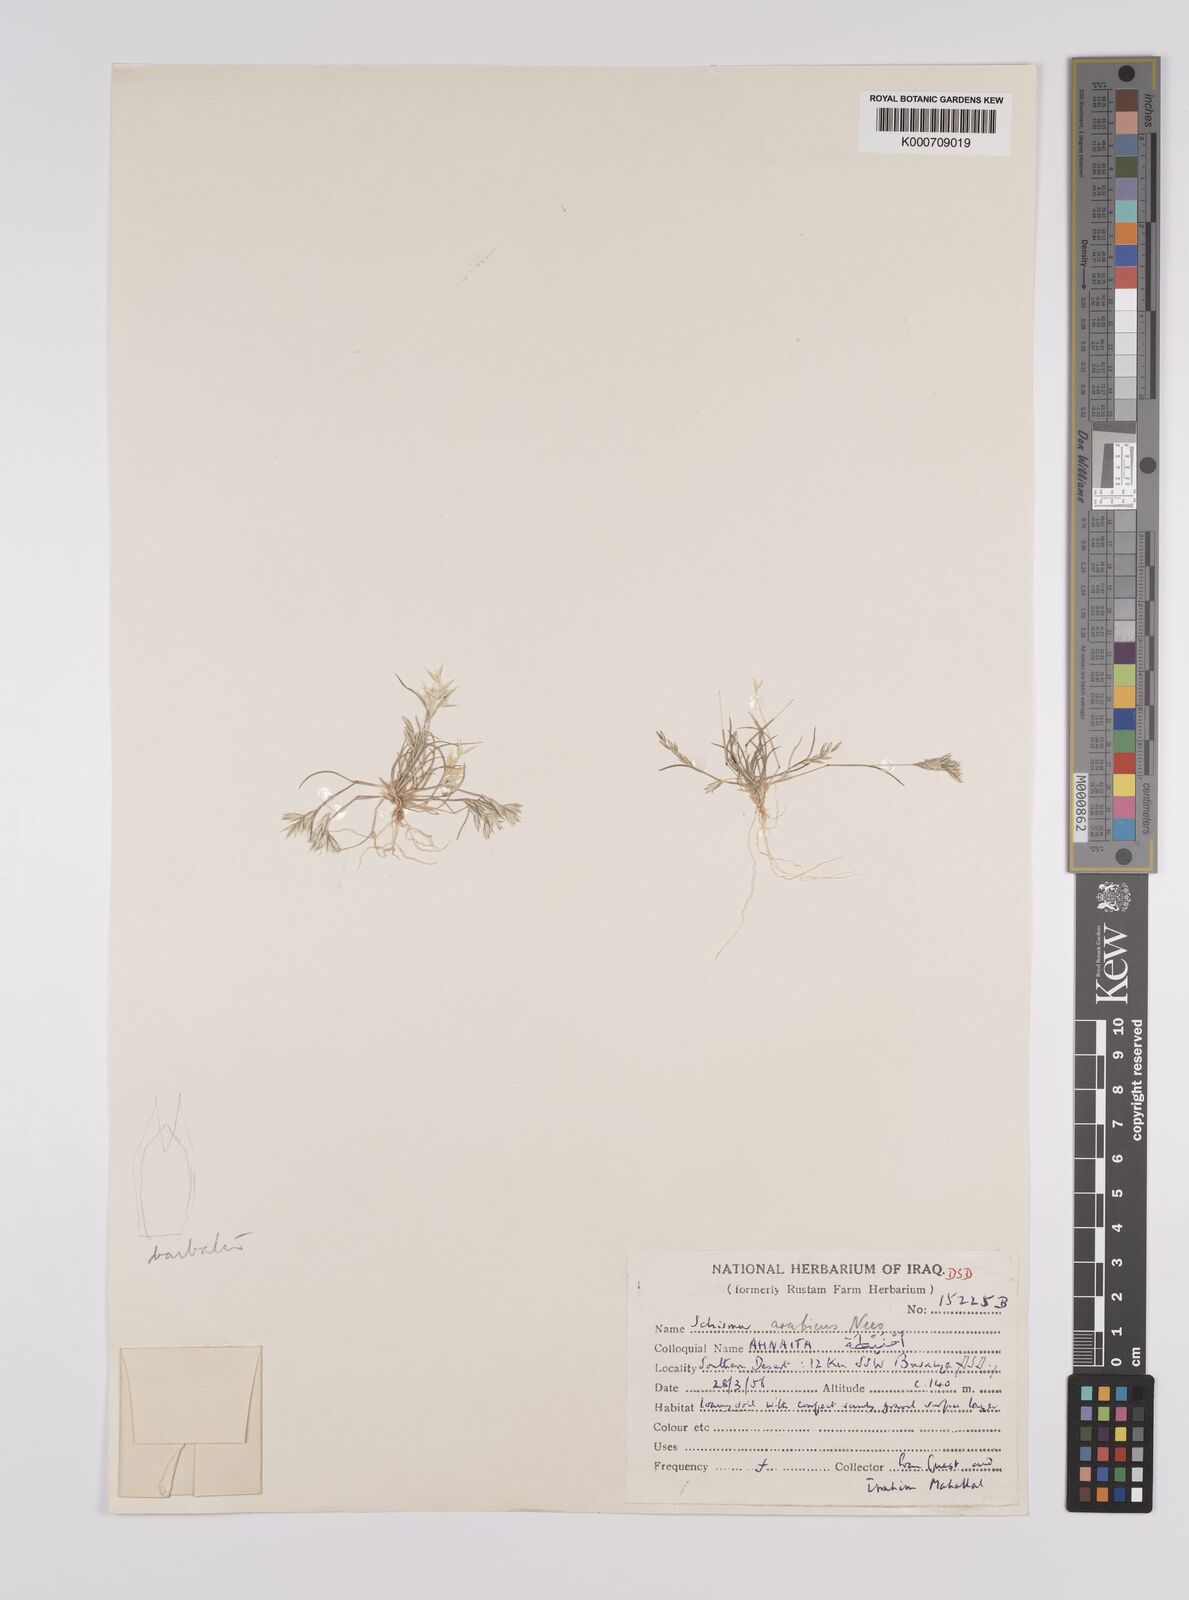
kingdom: Plantae
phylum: Tracheophyta
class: Liliopsida
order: Poales
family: Poaceae
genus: Schismus
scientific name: Schismus arabicus
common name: Arabian schismus
